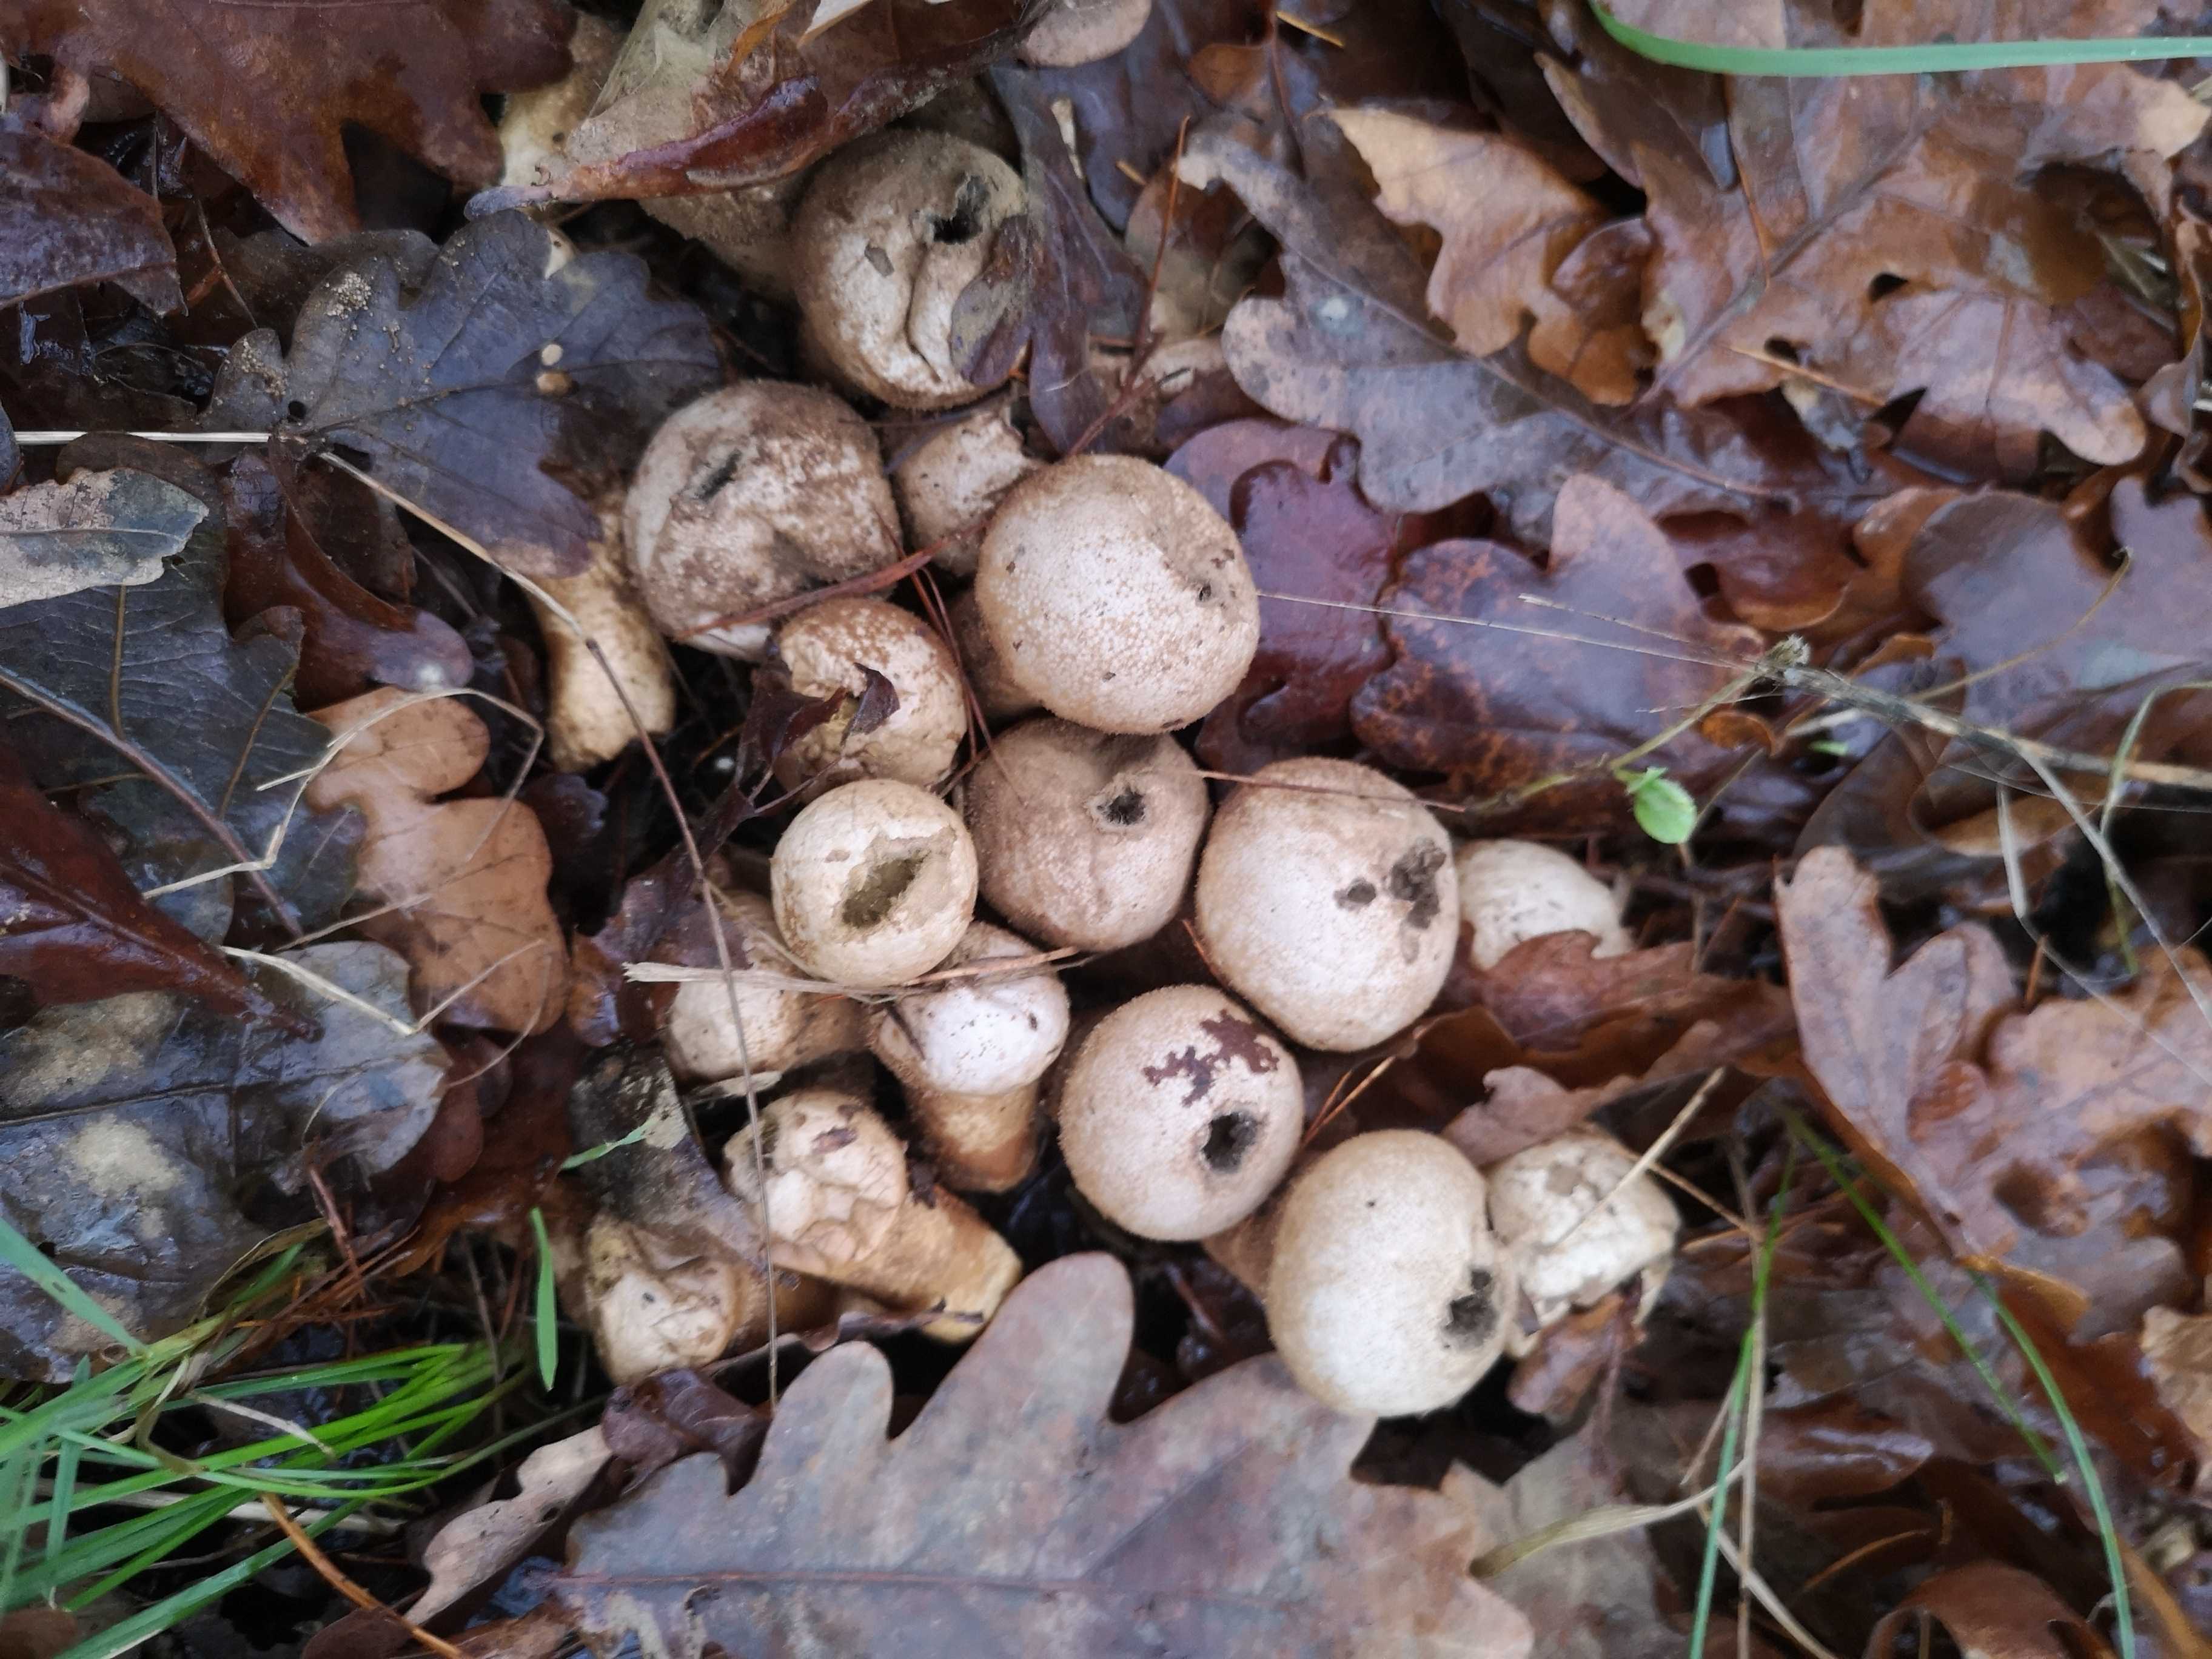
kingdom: Fungi
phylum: Basidiomycota
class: Agaricomycetes
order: Agaricales
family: Lycoperdaceae
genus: Lycoperdon
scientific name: Lycoperdon perlatum
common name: krystal-støvbold
